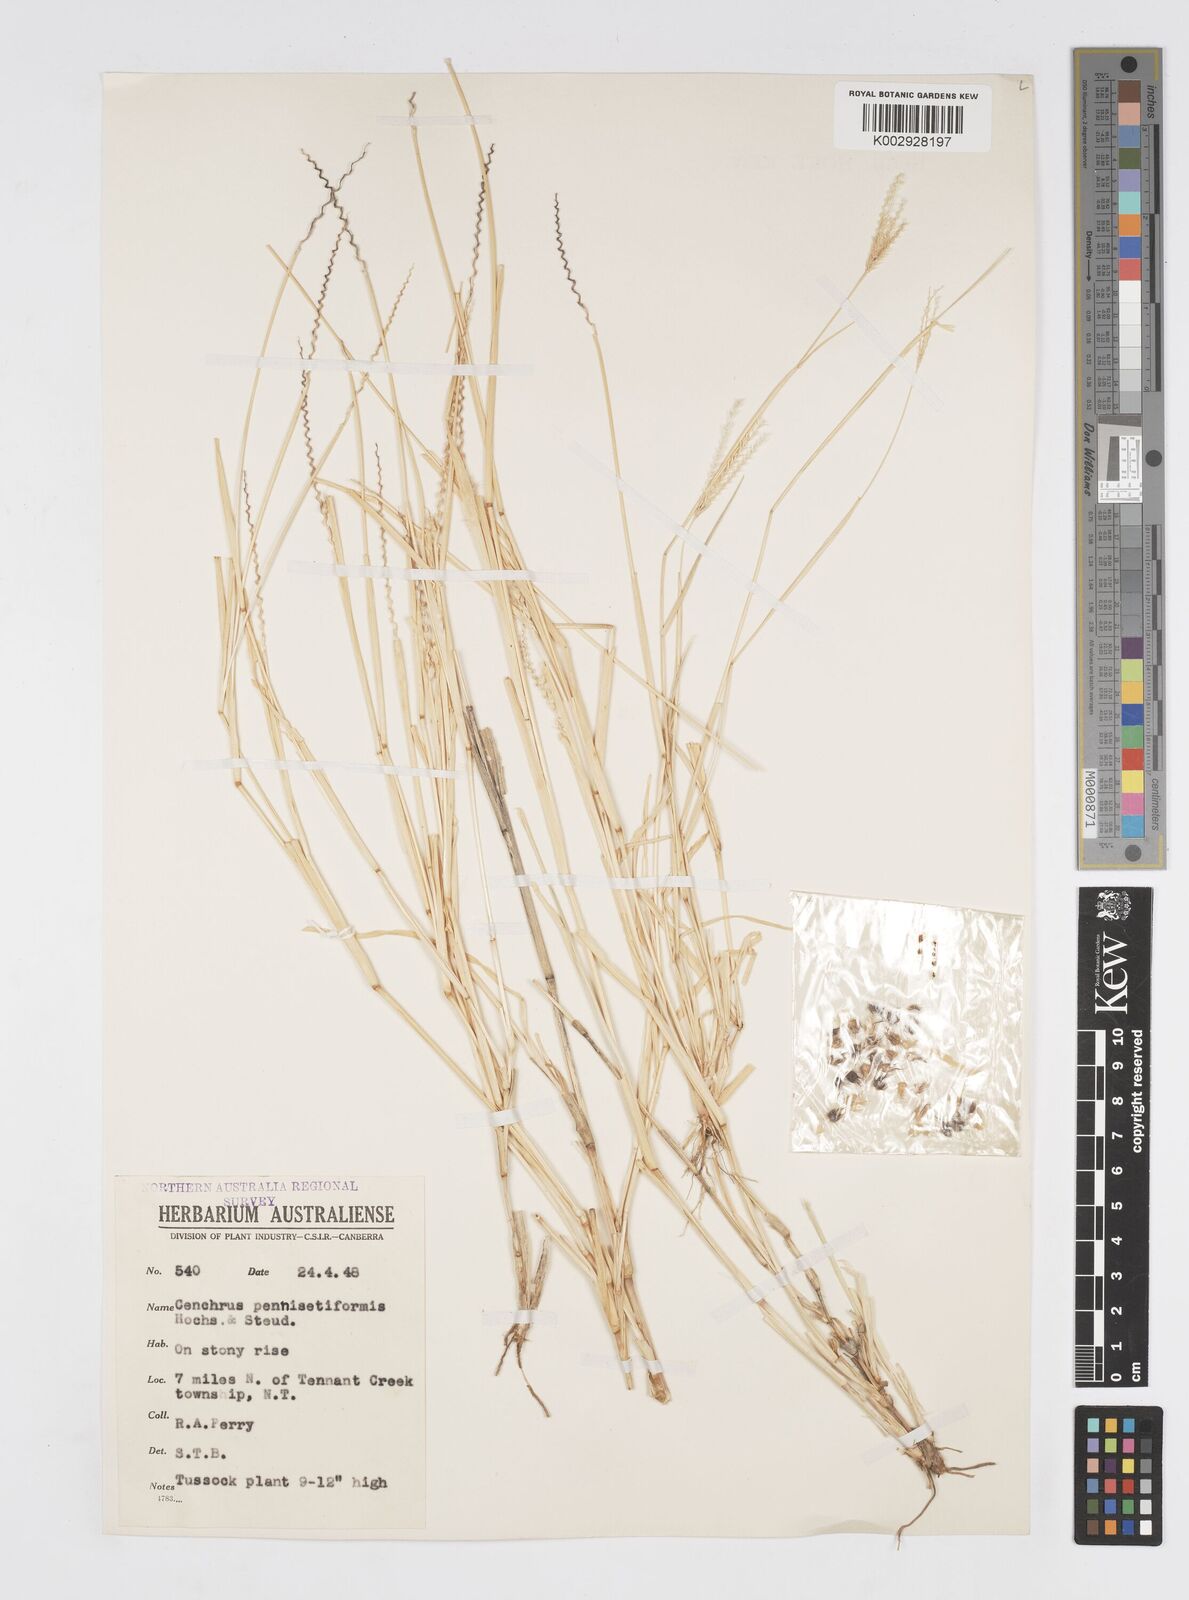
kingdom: Plantae
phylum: Tracheophyta
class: Liliopsida
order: Poales
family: Poaceae
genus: Cenchrus
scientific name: Cenchrus pennisetiformis
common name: Cloncurry
